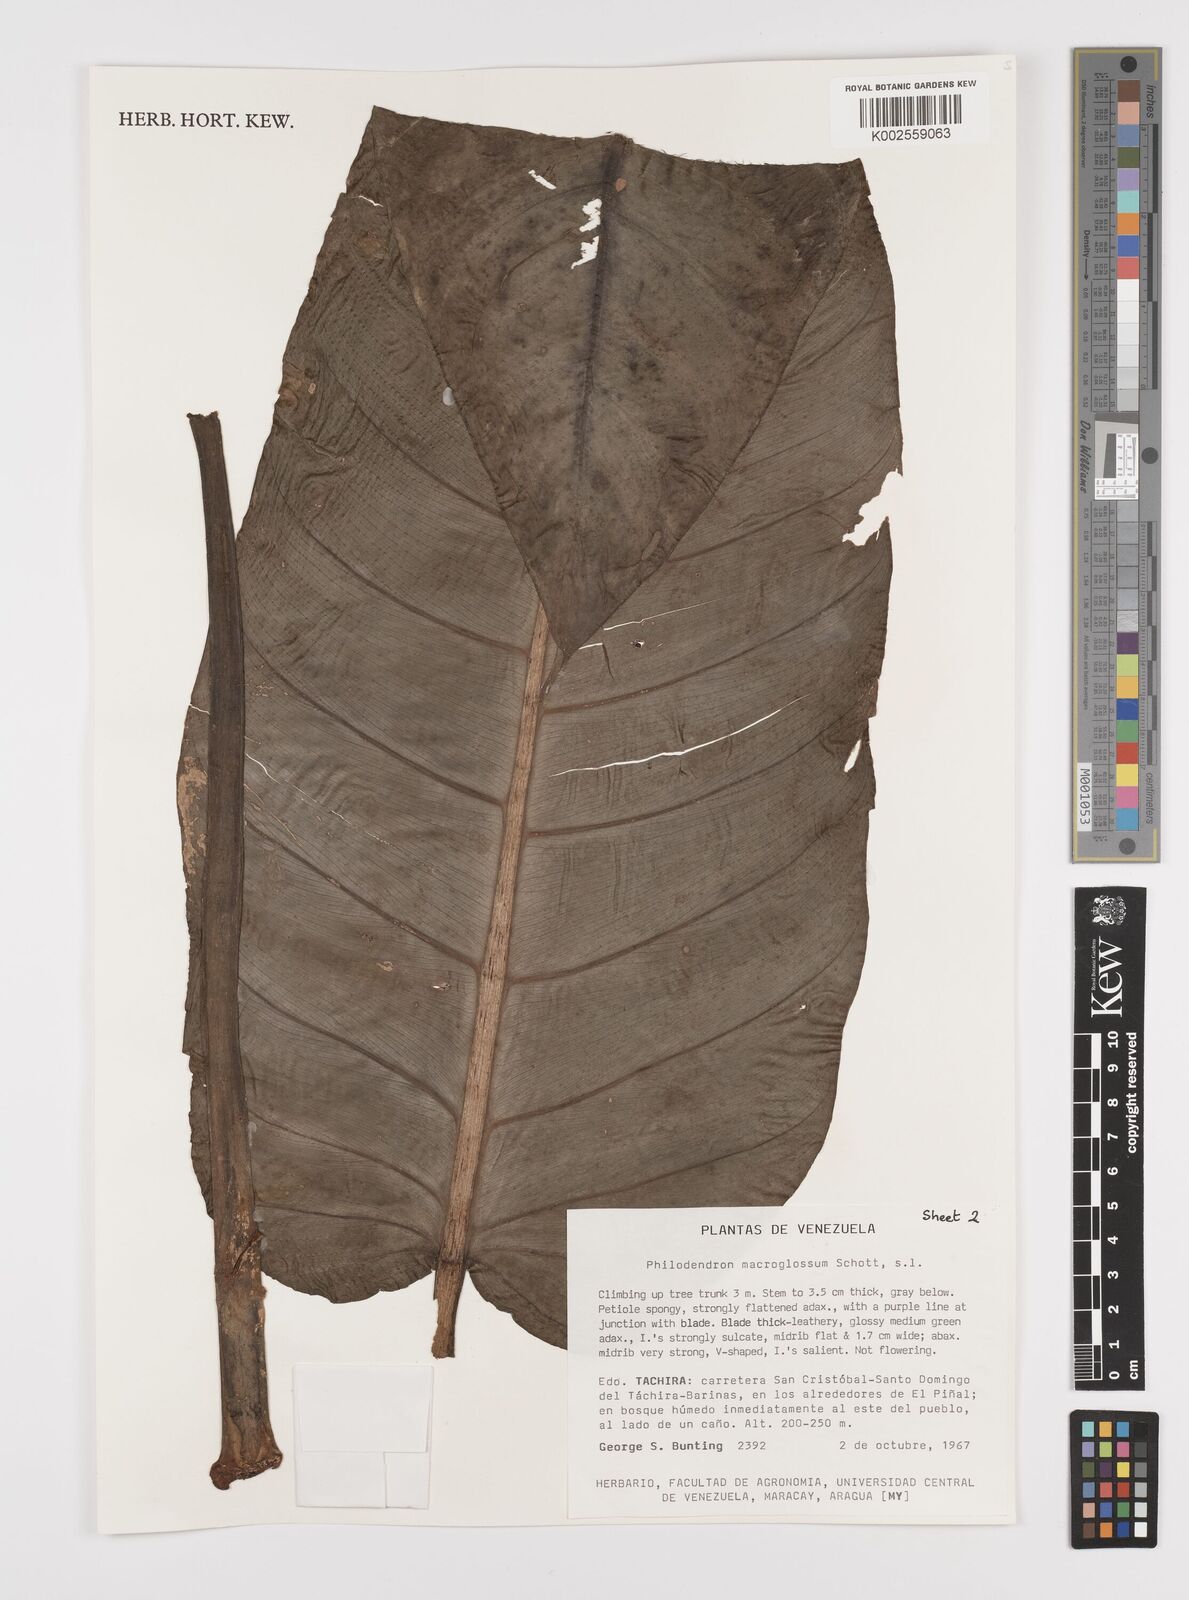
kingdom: Plantae
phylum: Tracheophyta
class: Liliopsida
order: Alismatales
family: Araceae
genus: Philodendron
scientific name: Philodendron macroglossum
